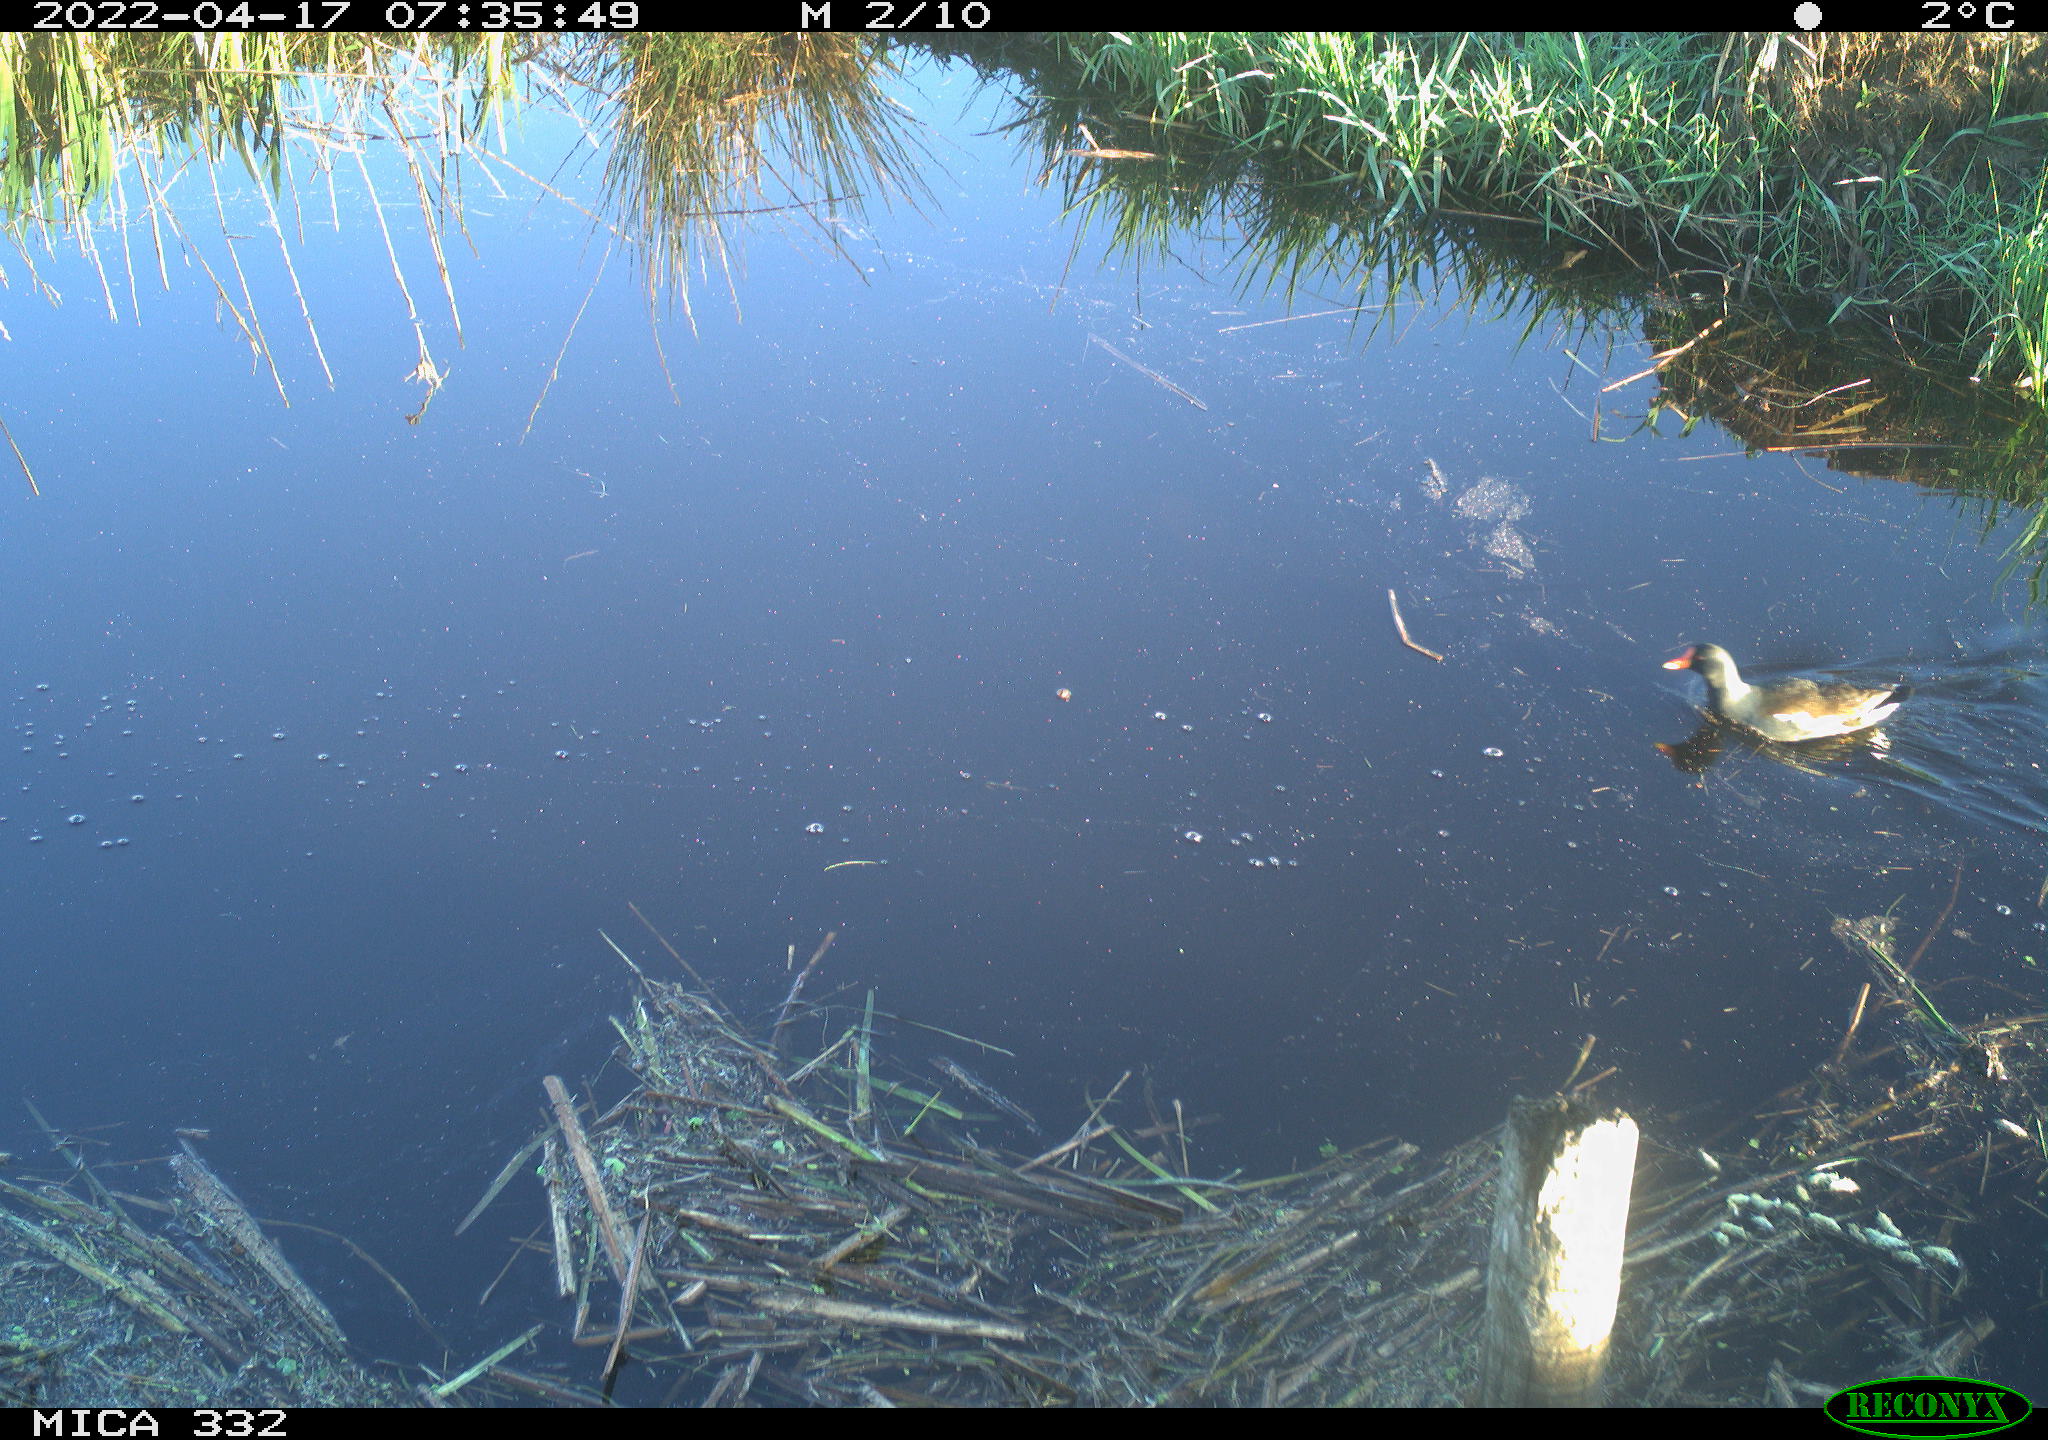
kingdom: Animalia
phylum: Chordata
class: Aves
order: Gruiformes
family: Rallidae
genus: Gallinula
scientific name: Gallinula chloropus
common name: Common moorhen
